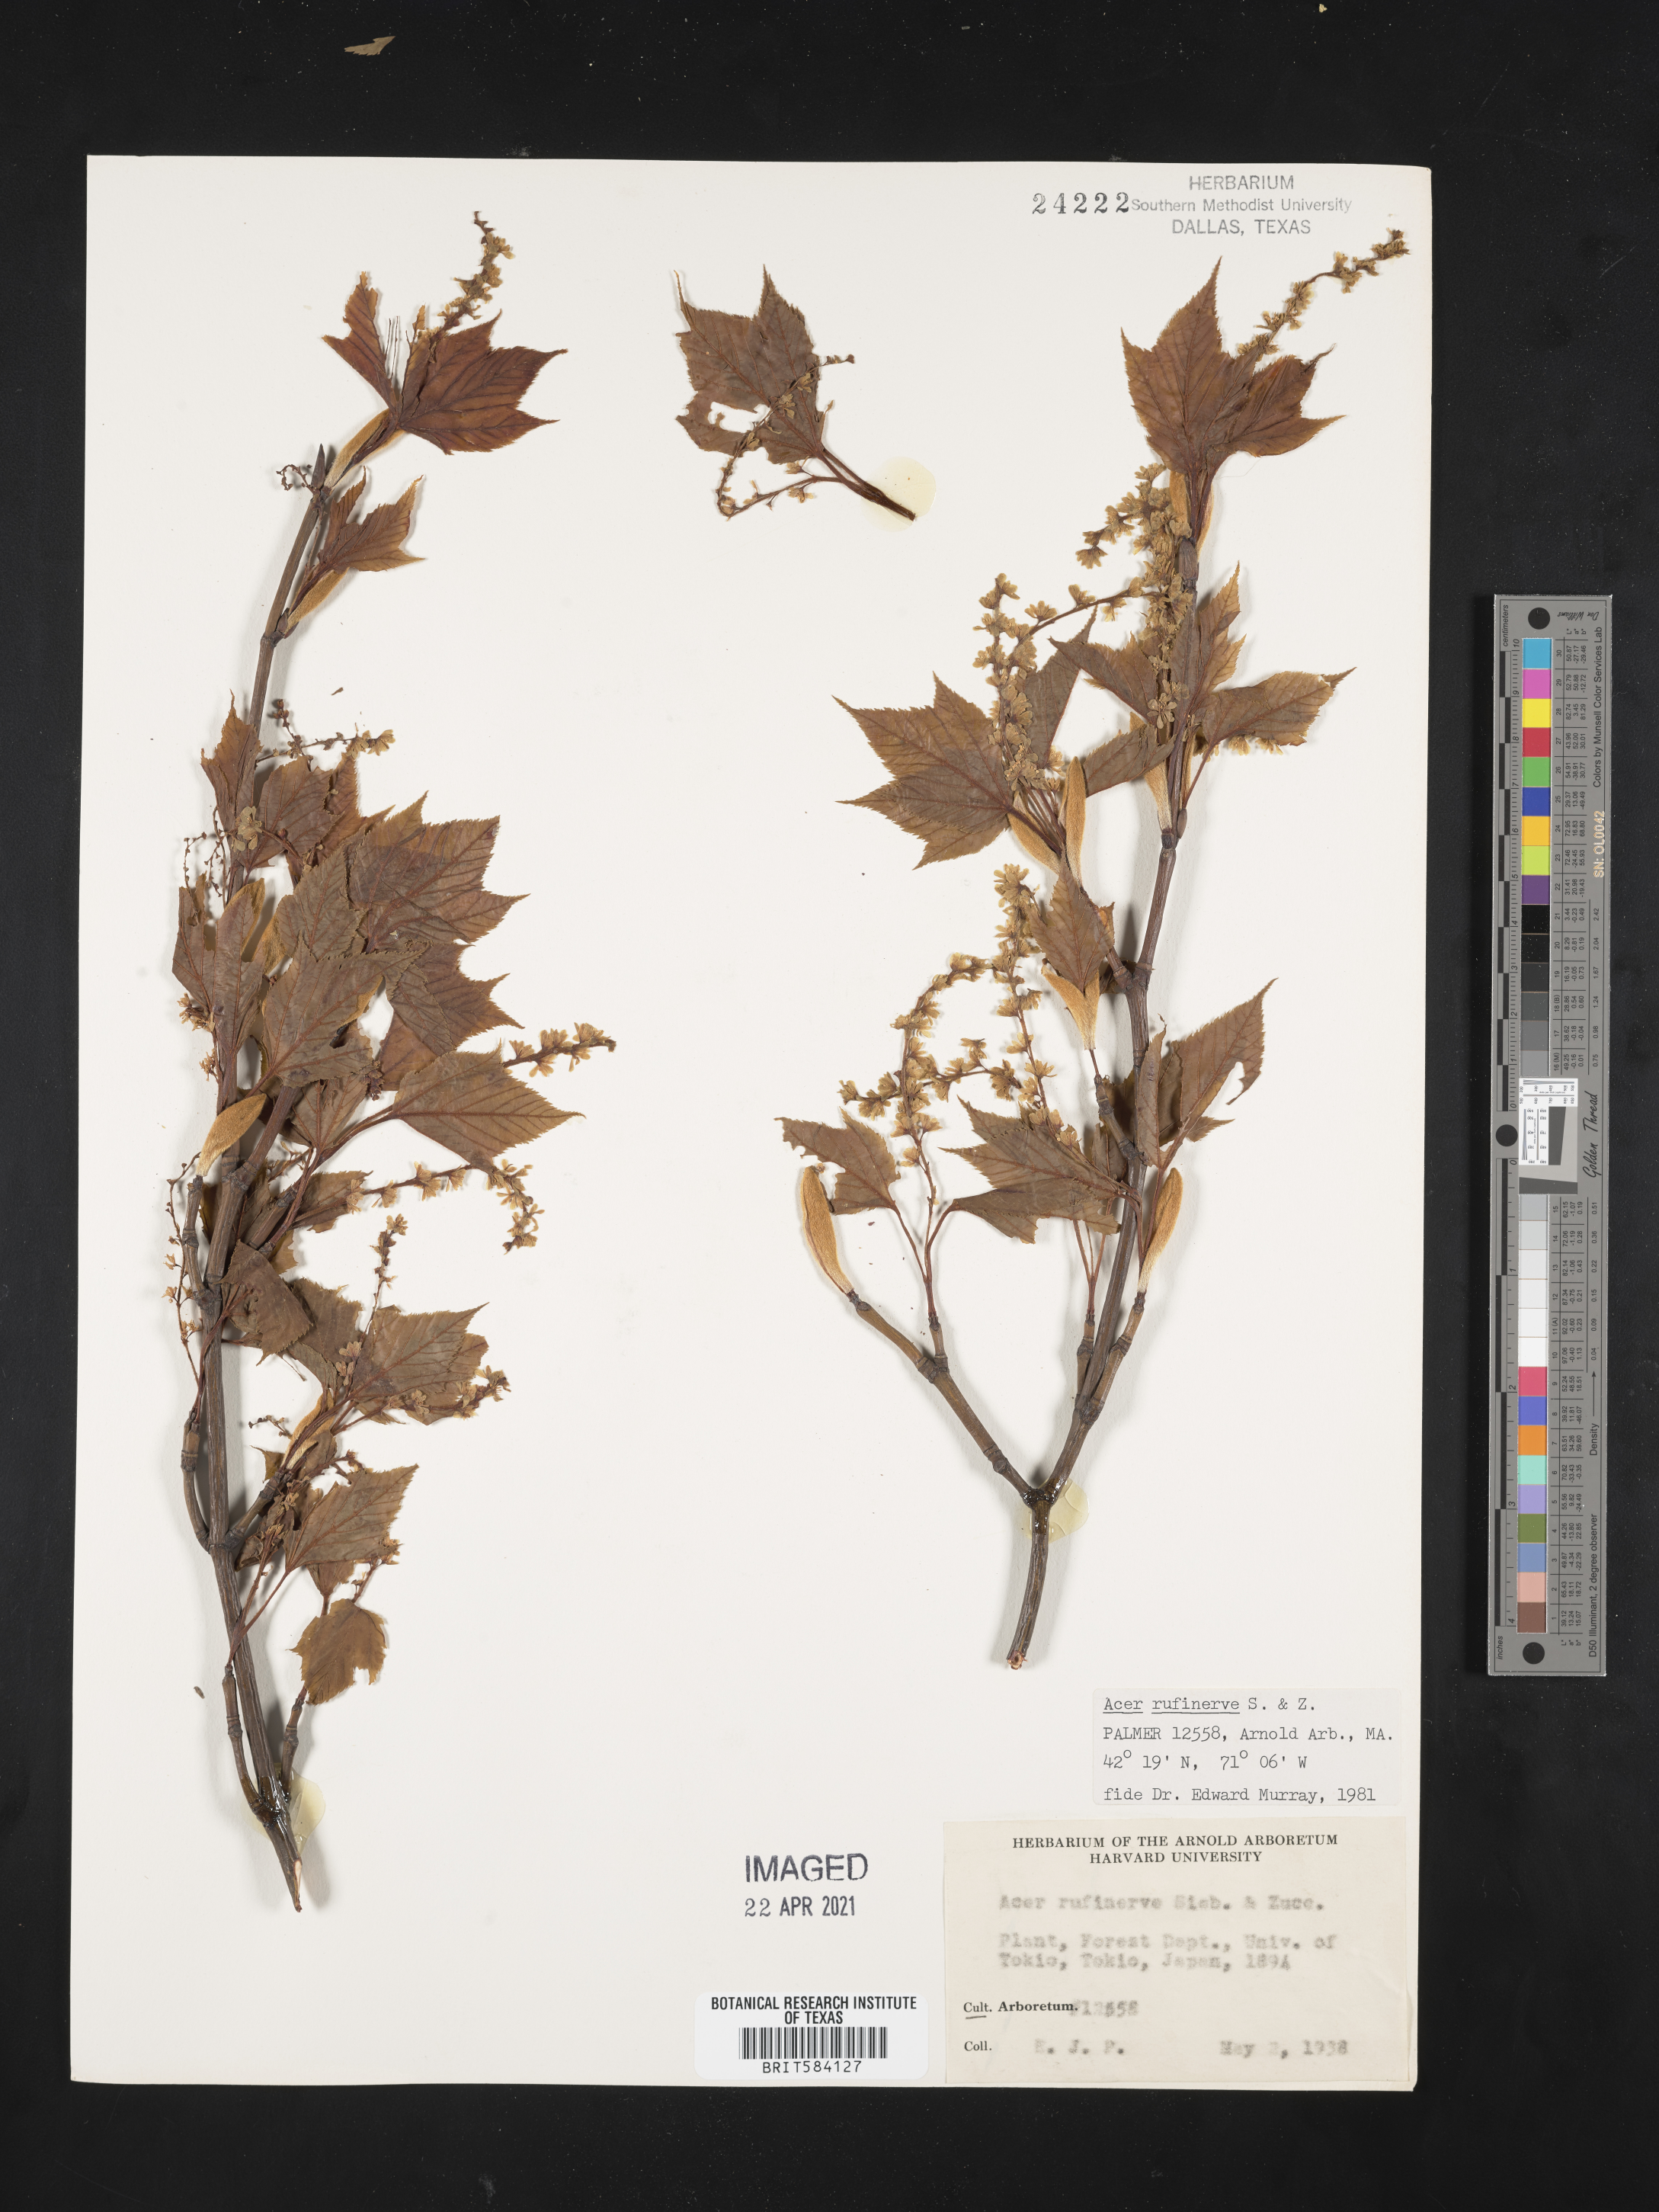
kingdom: Plantae
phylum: Tracheophyta
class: Magnoliopsida
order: Sapindales
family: Sapindaceae
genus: Acer
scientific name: Acer rufinerve
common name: Red veined maple
